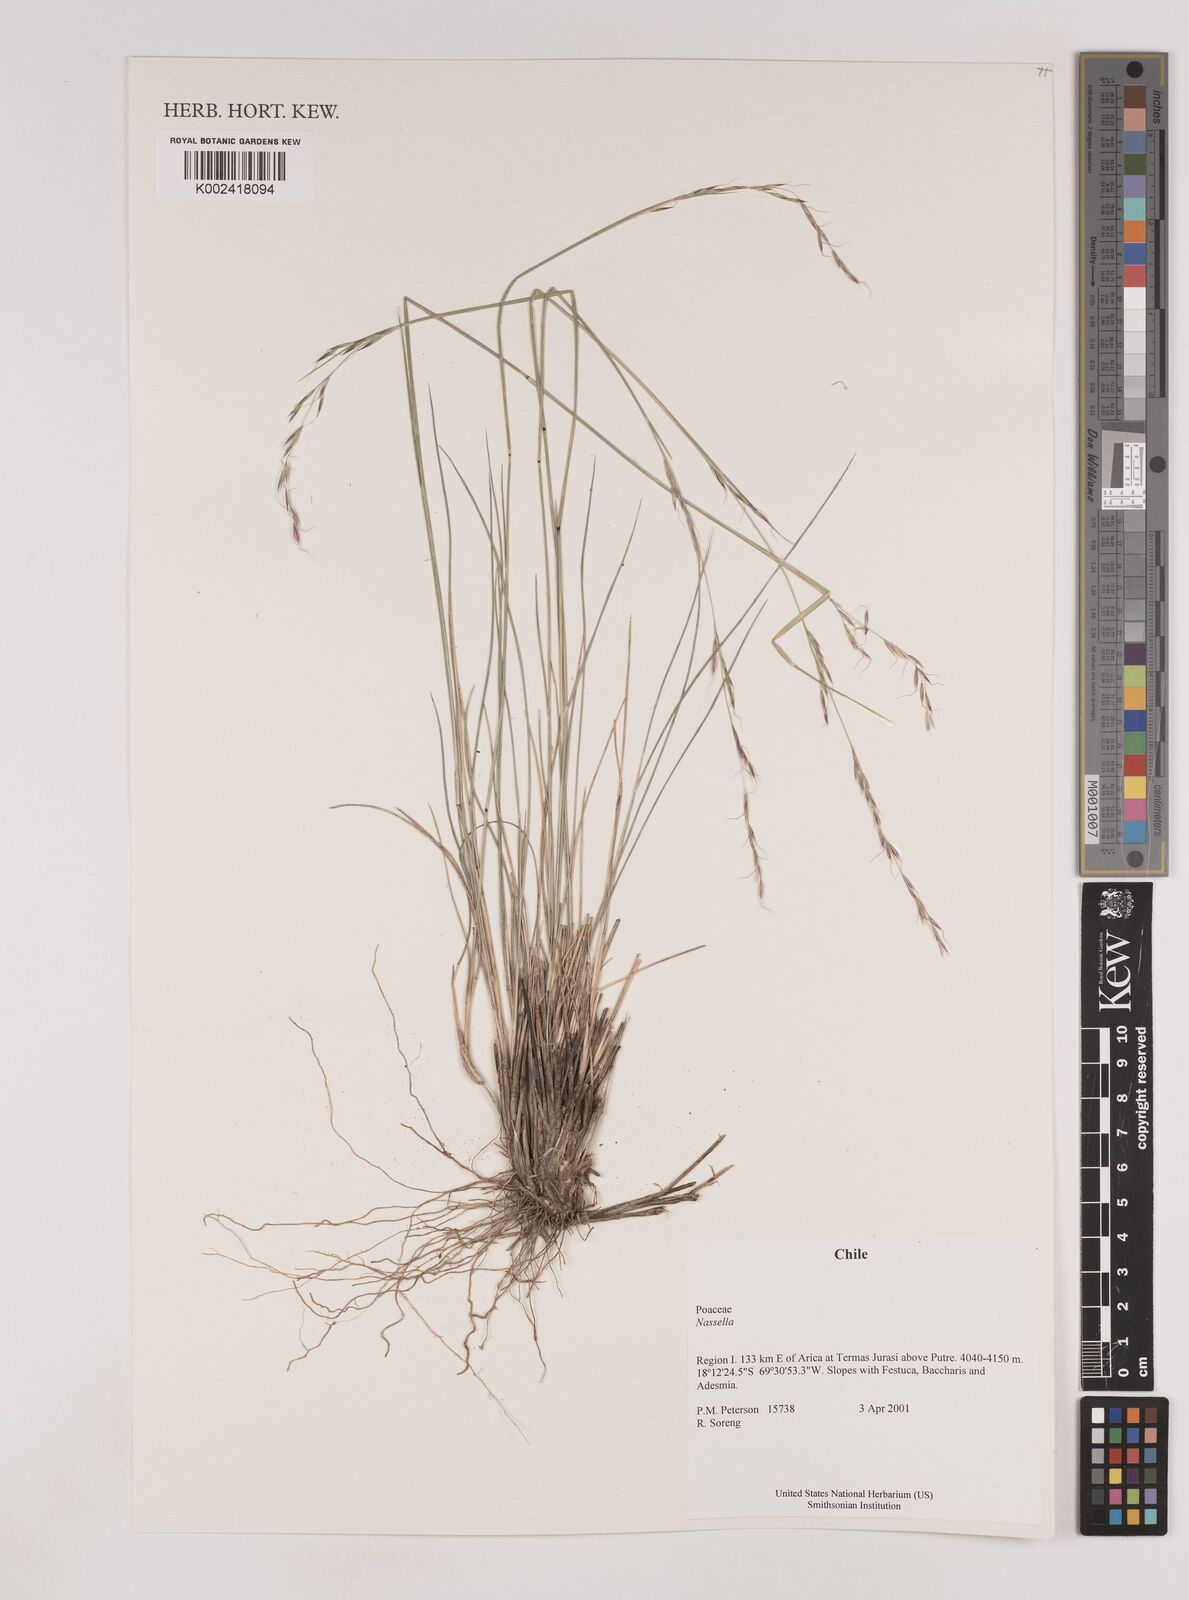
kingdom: Plantae
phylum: Tracheophyta
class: Liliopsida
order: Poales
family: Poaceae
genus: Nassella
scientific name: Nassella
